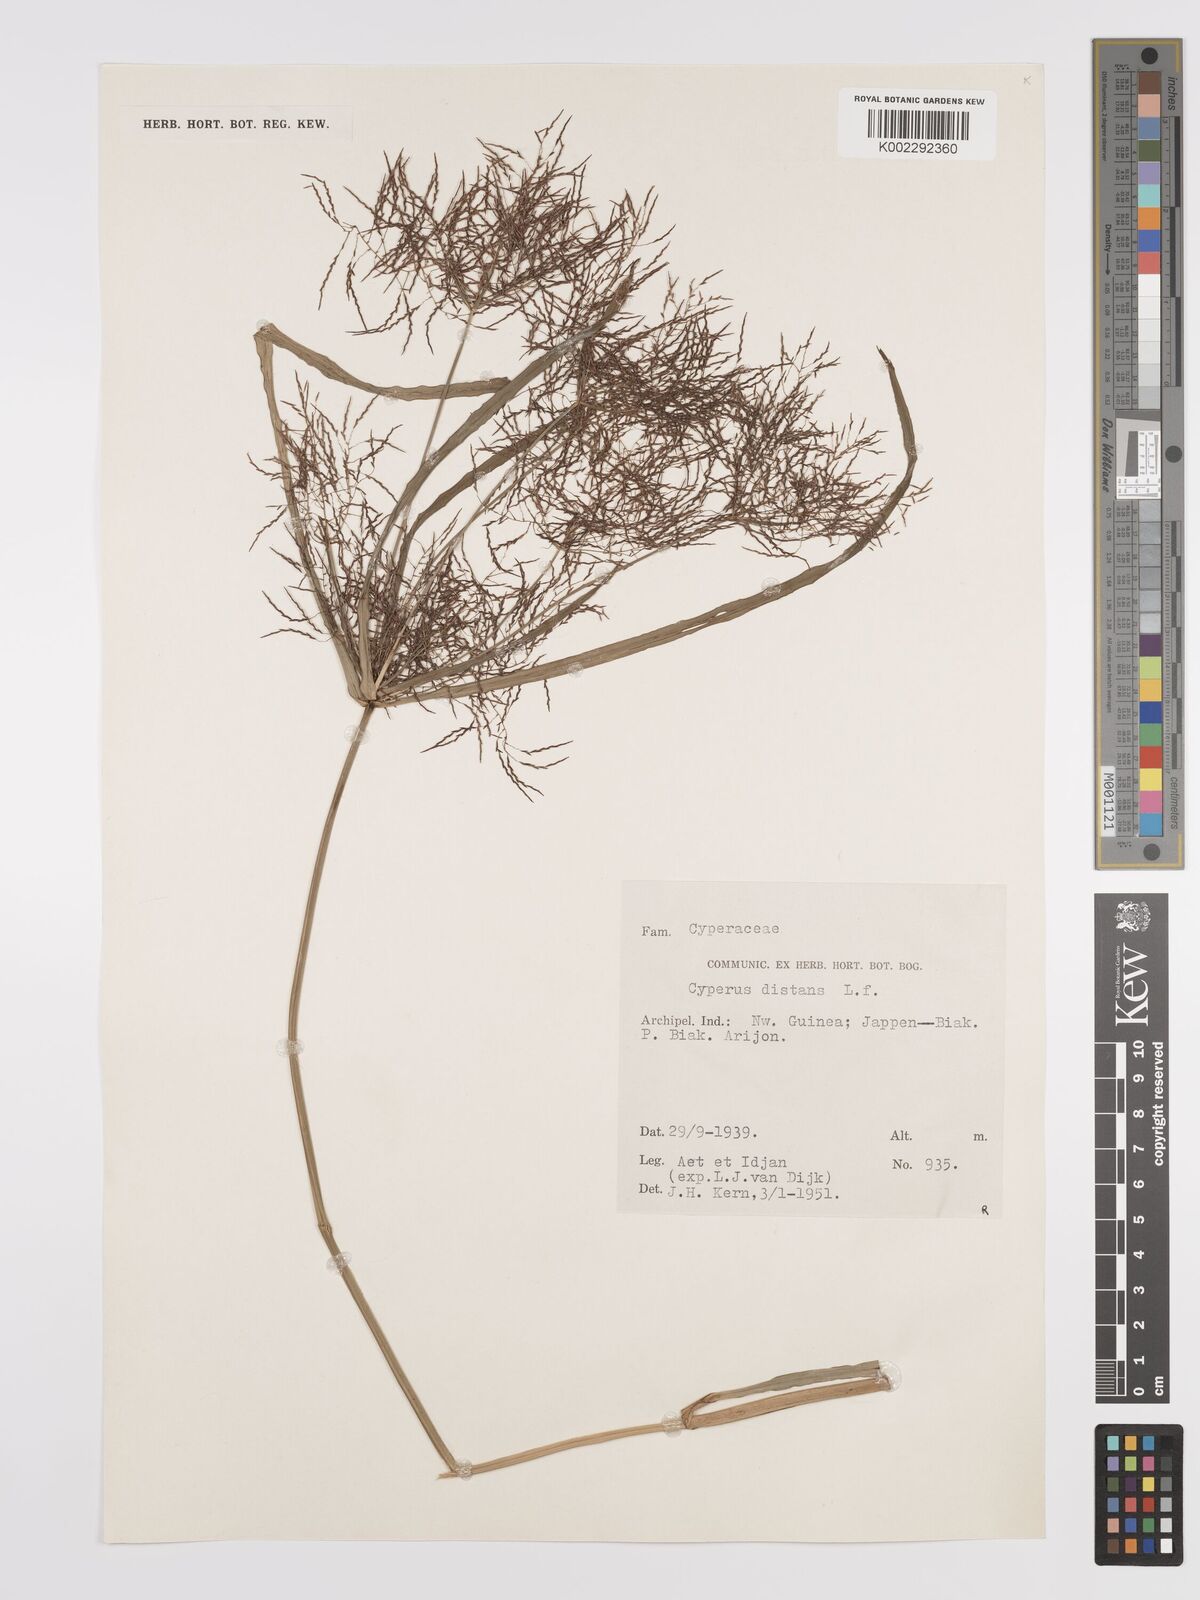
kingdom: Plantae
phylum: Tracheophyta
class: Liliopsida
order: Poales
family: Cyperaceae
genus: Cyperus
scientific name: Cyperus distans
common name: Slender cyperus
